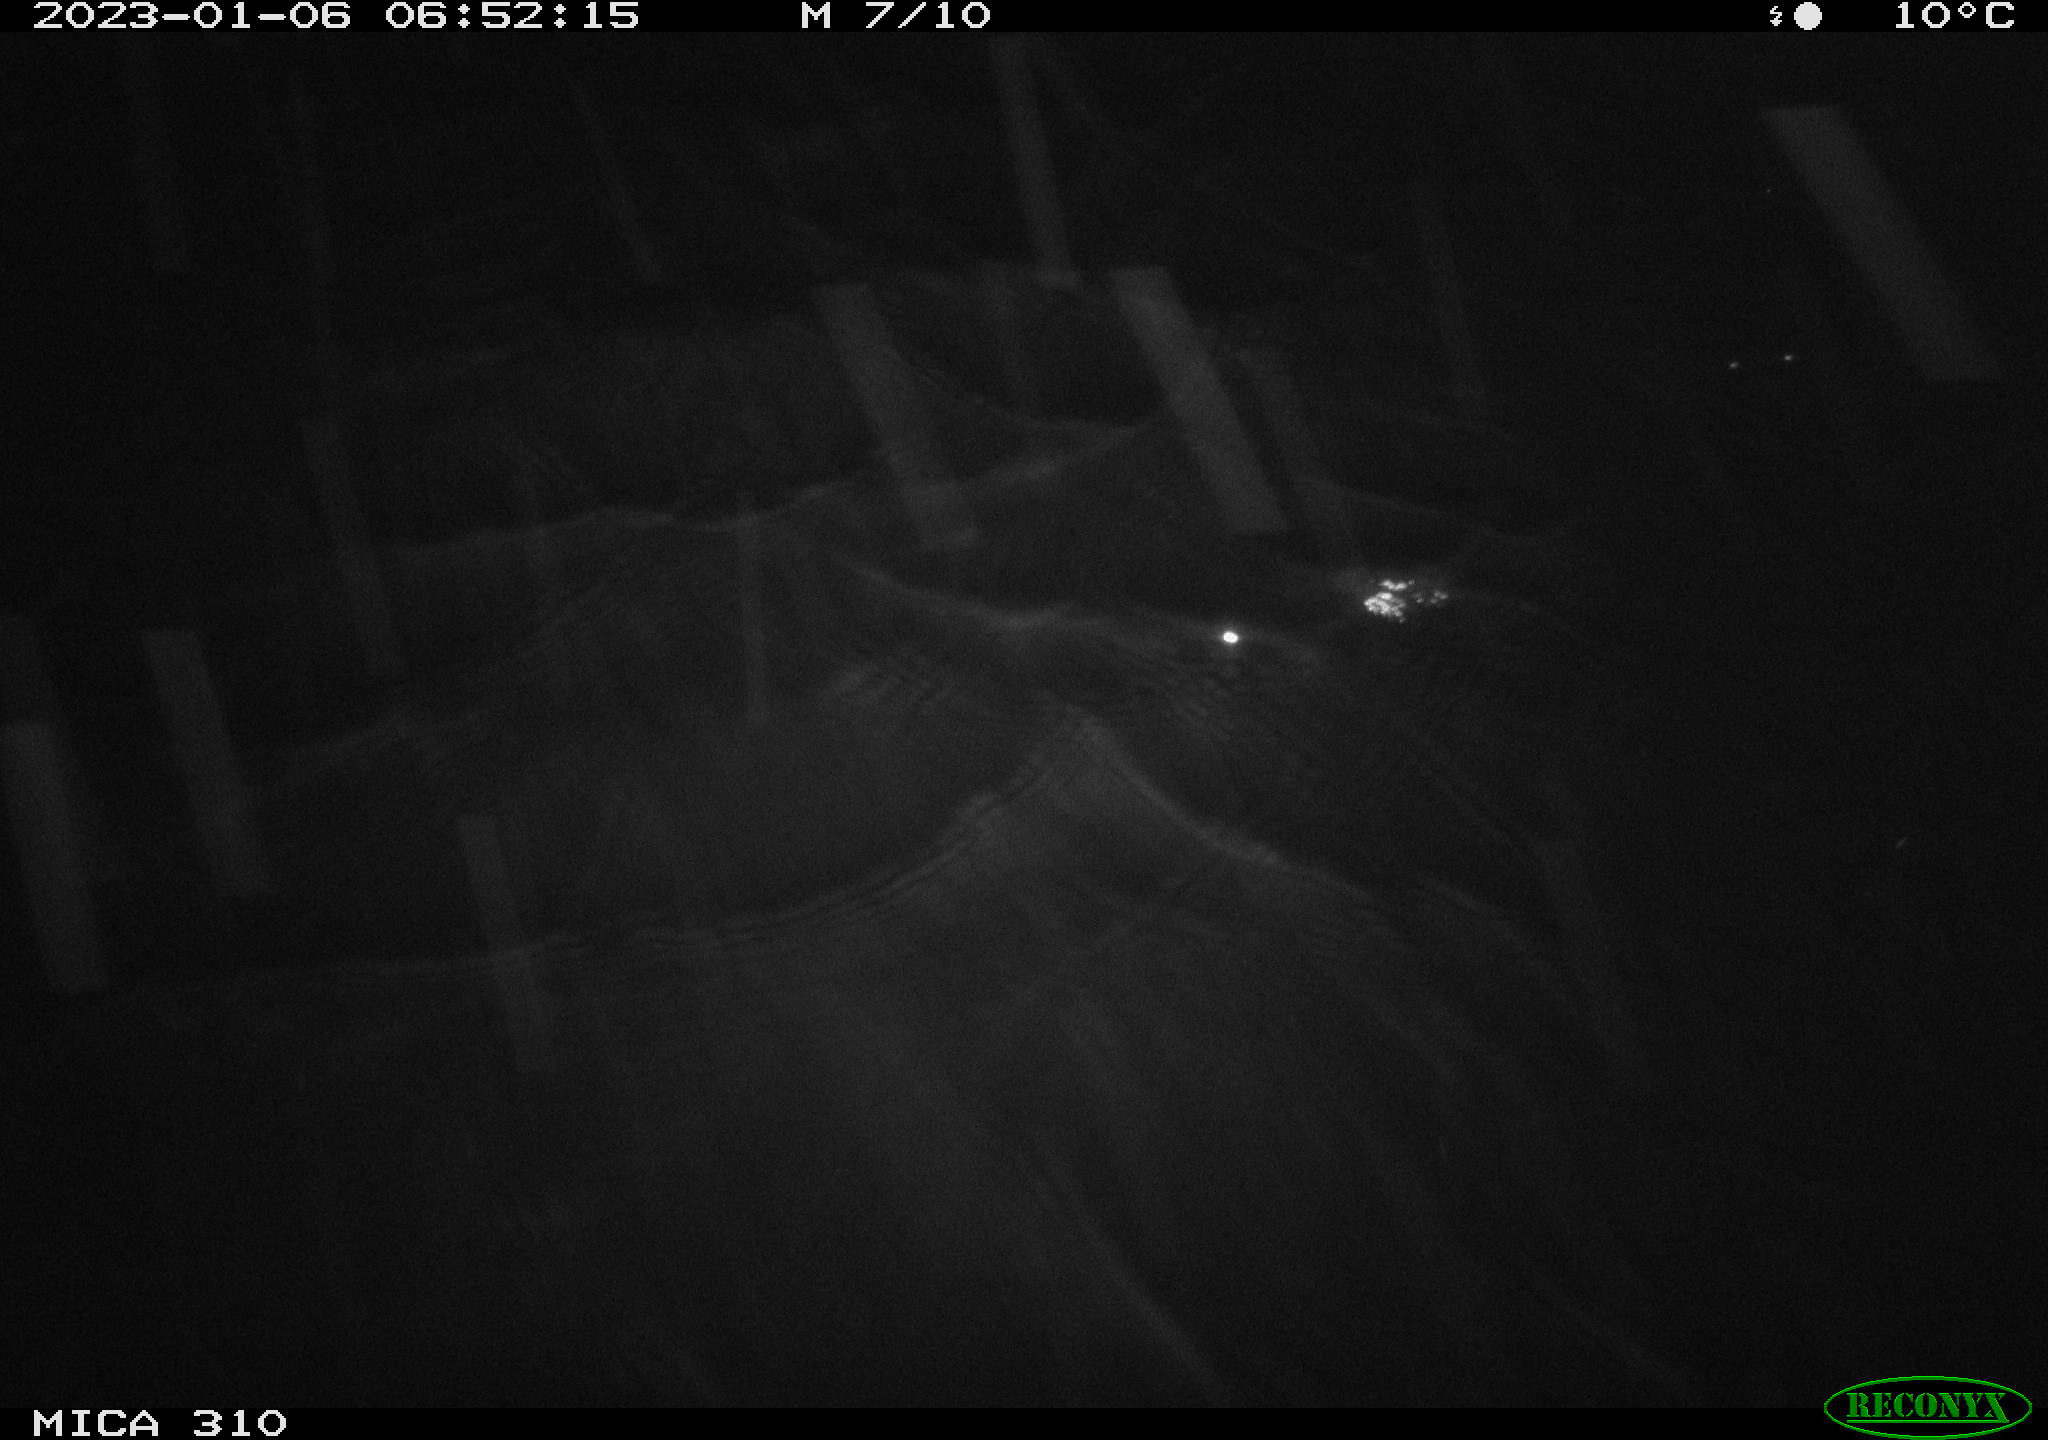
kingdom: Animalia
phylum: Chordata
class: Mammalia
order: Rodentia
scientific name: Rodentia
